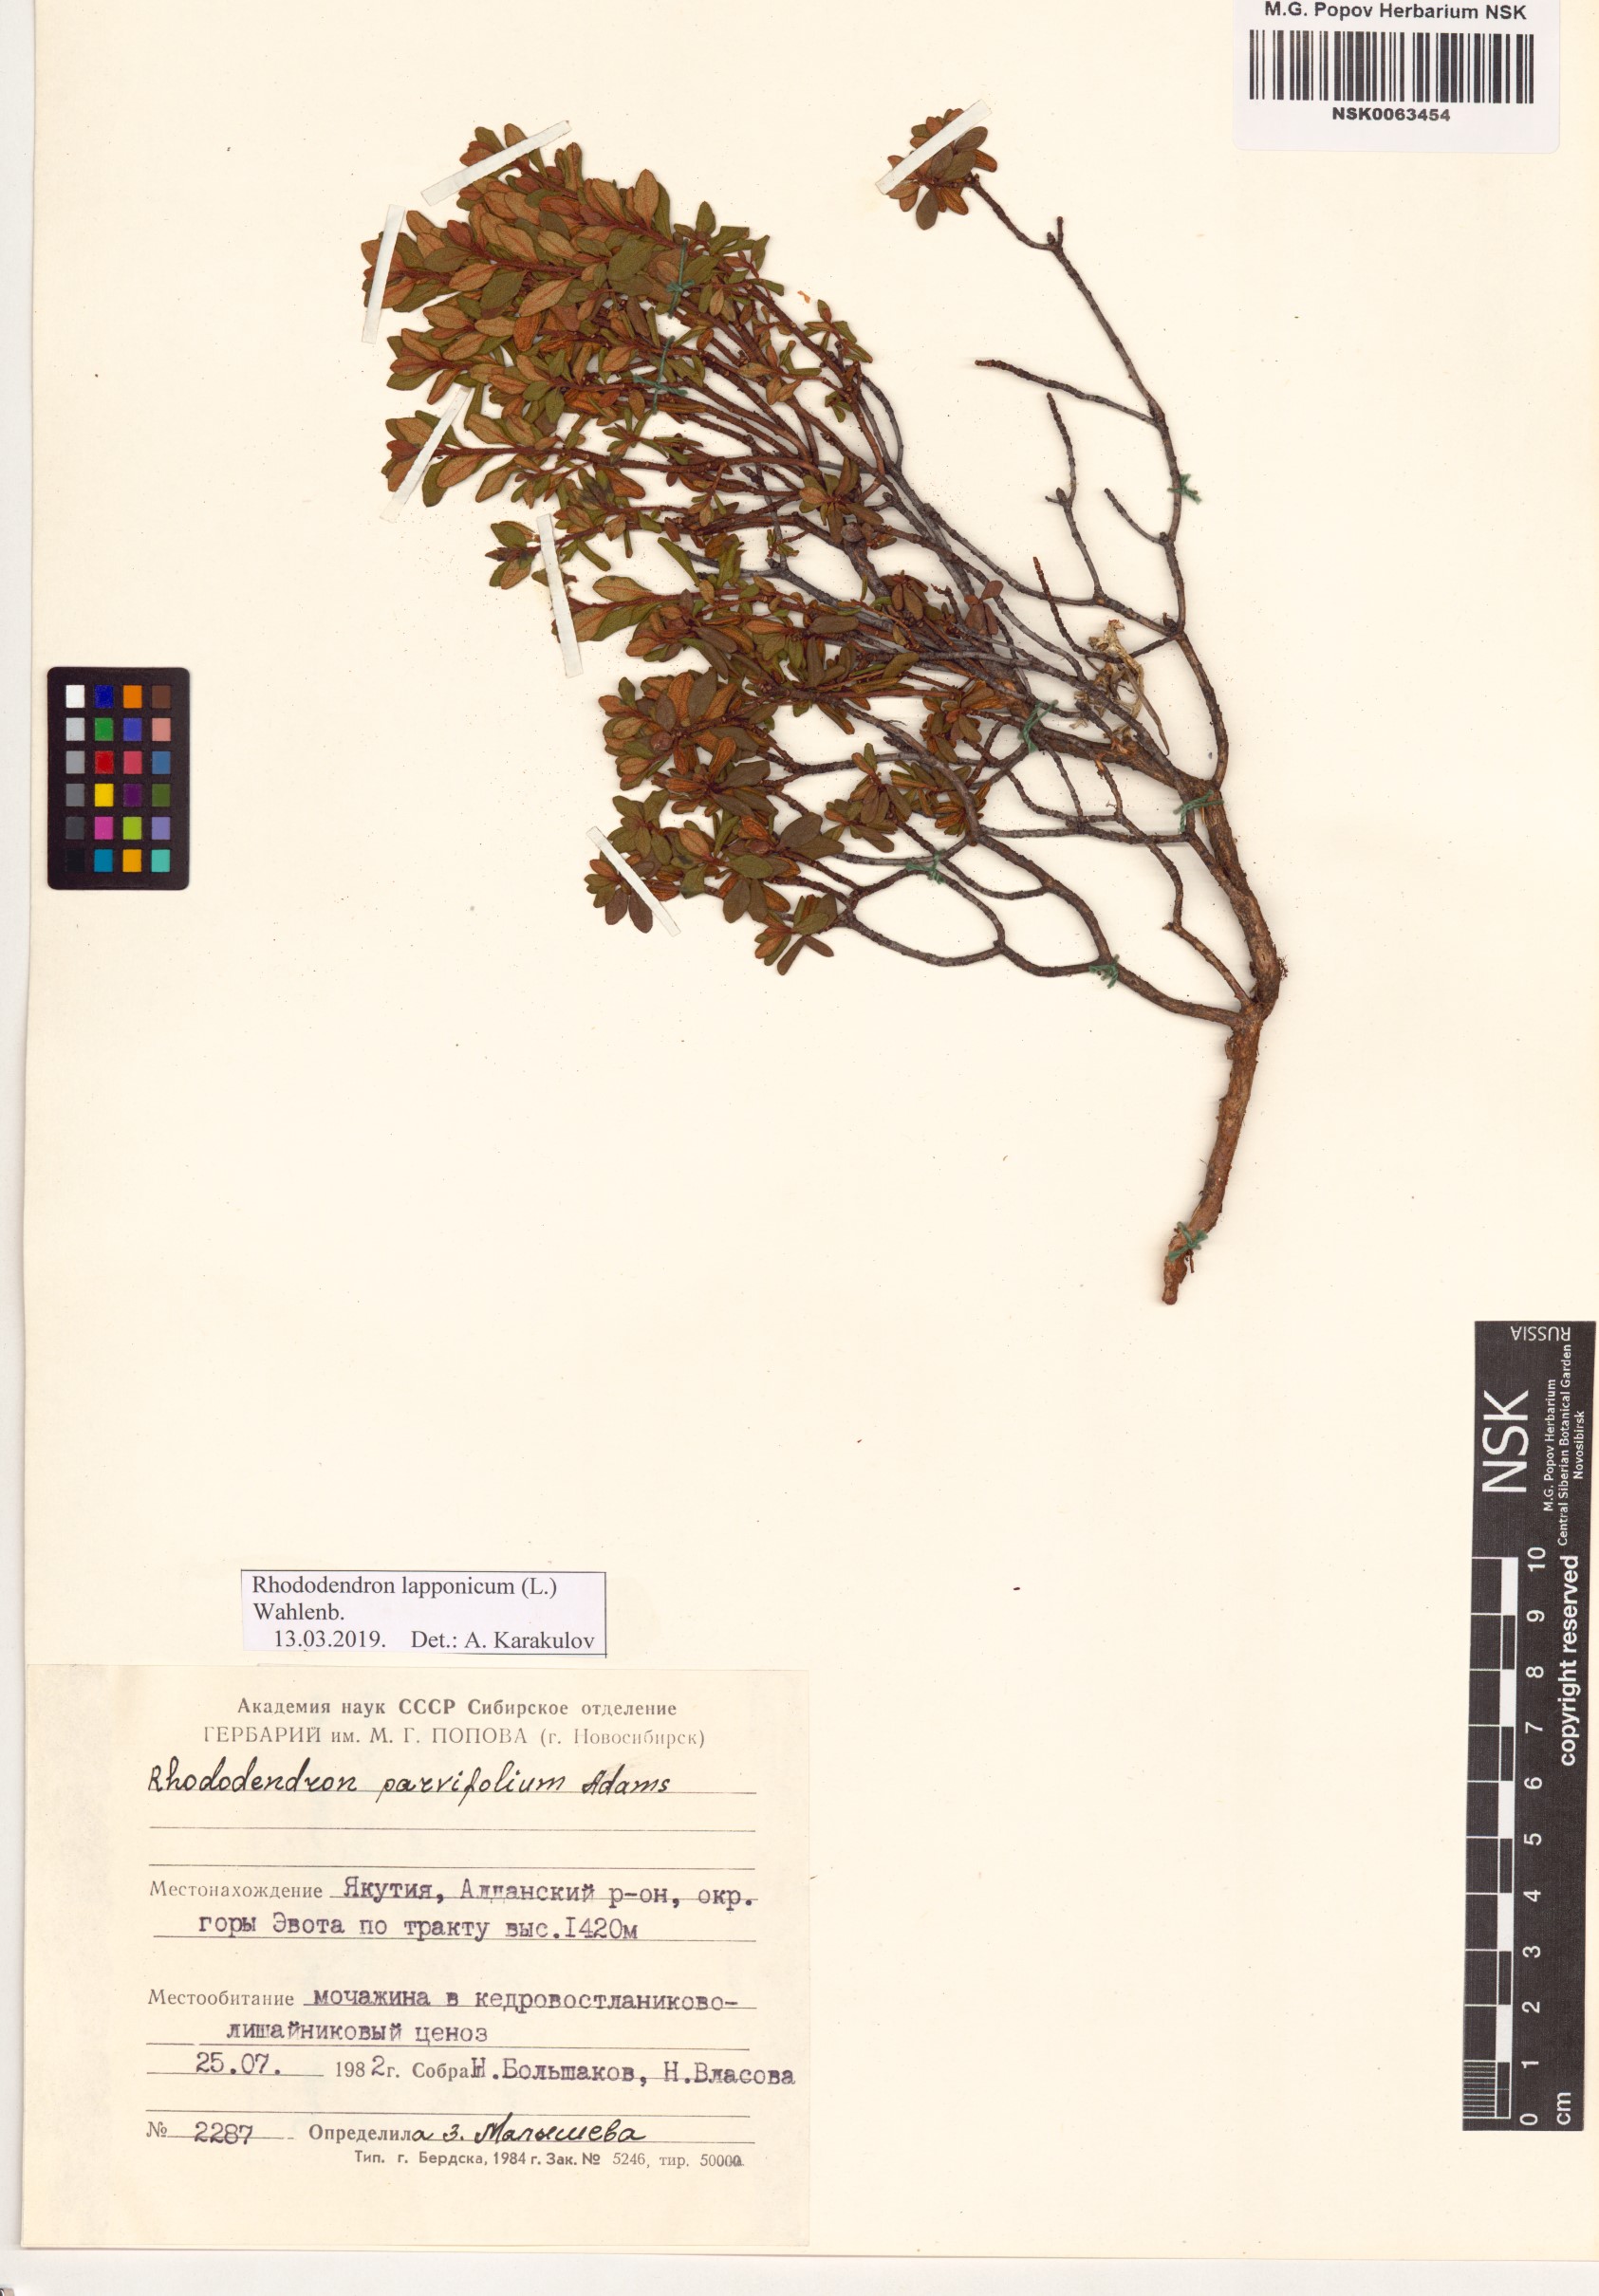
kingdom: Plantae
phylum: Tracheophyta
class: Magnoliopsida
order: Ericales
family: Ericaceae
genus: Rhododendron
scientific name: Rhododendron lapponicum
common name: Lapland rhododendron
